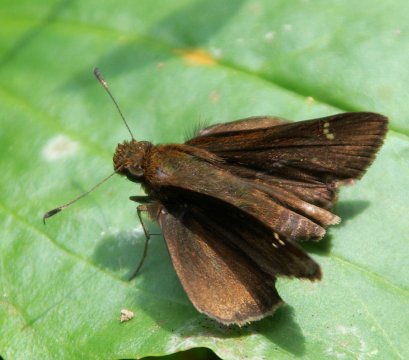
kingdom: Animalia
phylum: Arthropoda
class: Insecta
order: Lepidoptera
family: Hesperiidae
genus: Lerema
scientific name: Lerema accius
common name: Clouded Skipper
